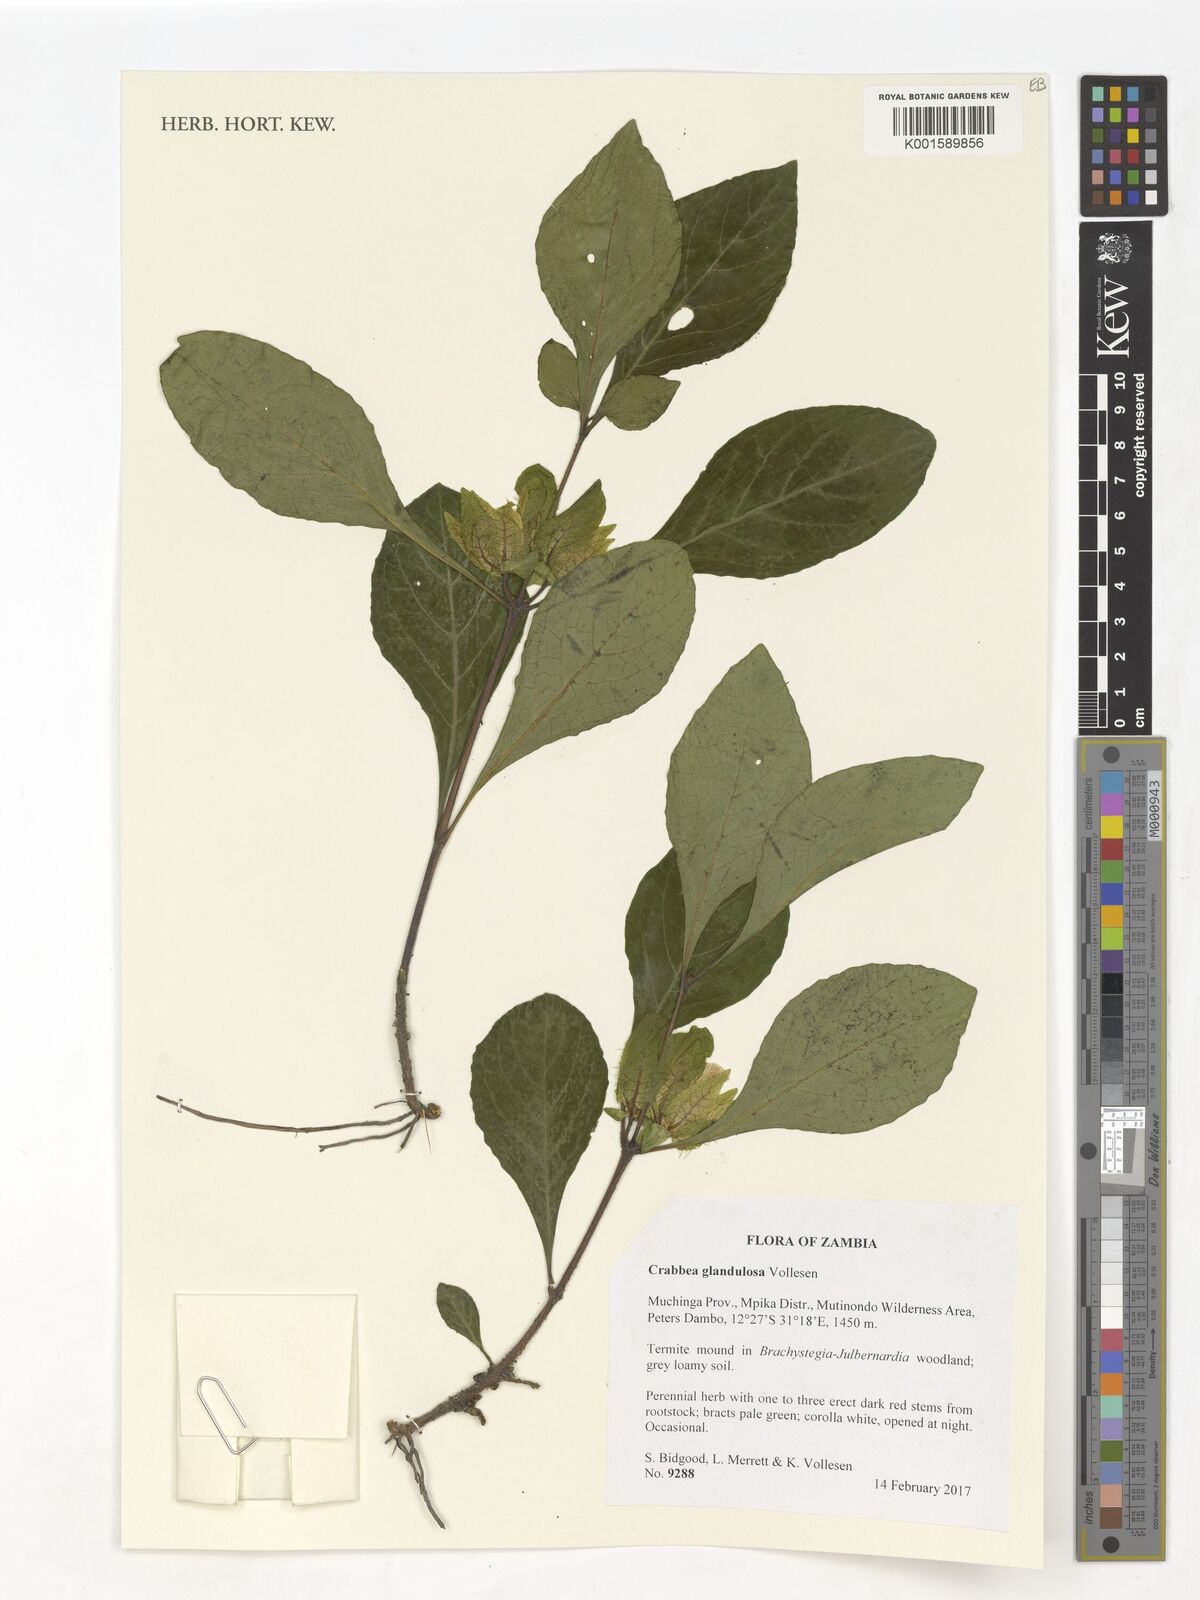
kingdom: Plantae
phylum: Tracheophyta
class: Magnoliopsida
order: Lamiales
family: Acanthaceae
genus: Crabbea
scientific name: Crabbea glandulosa
